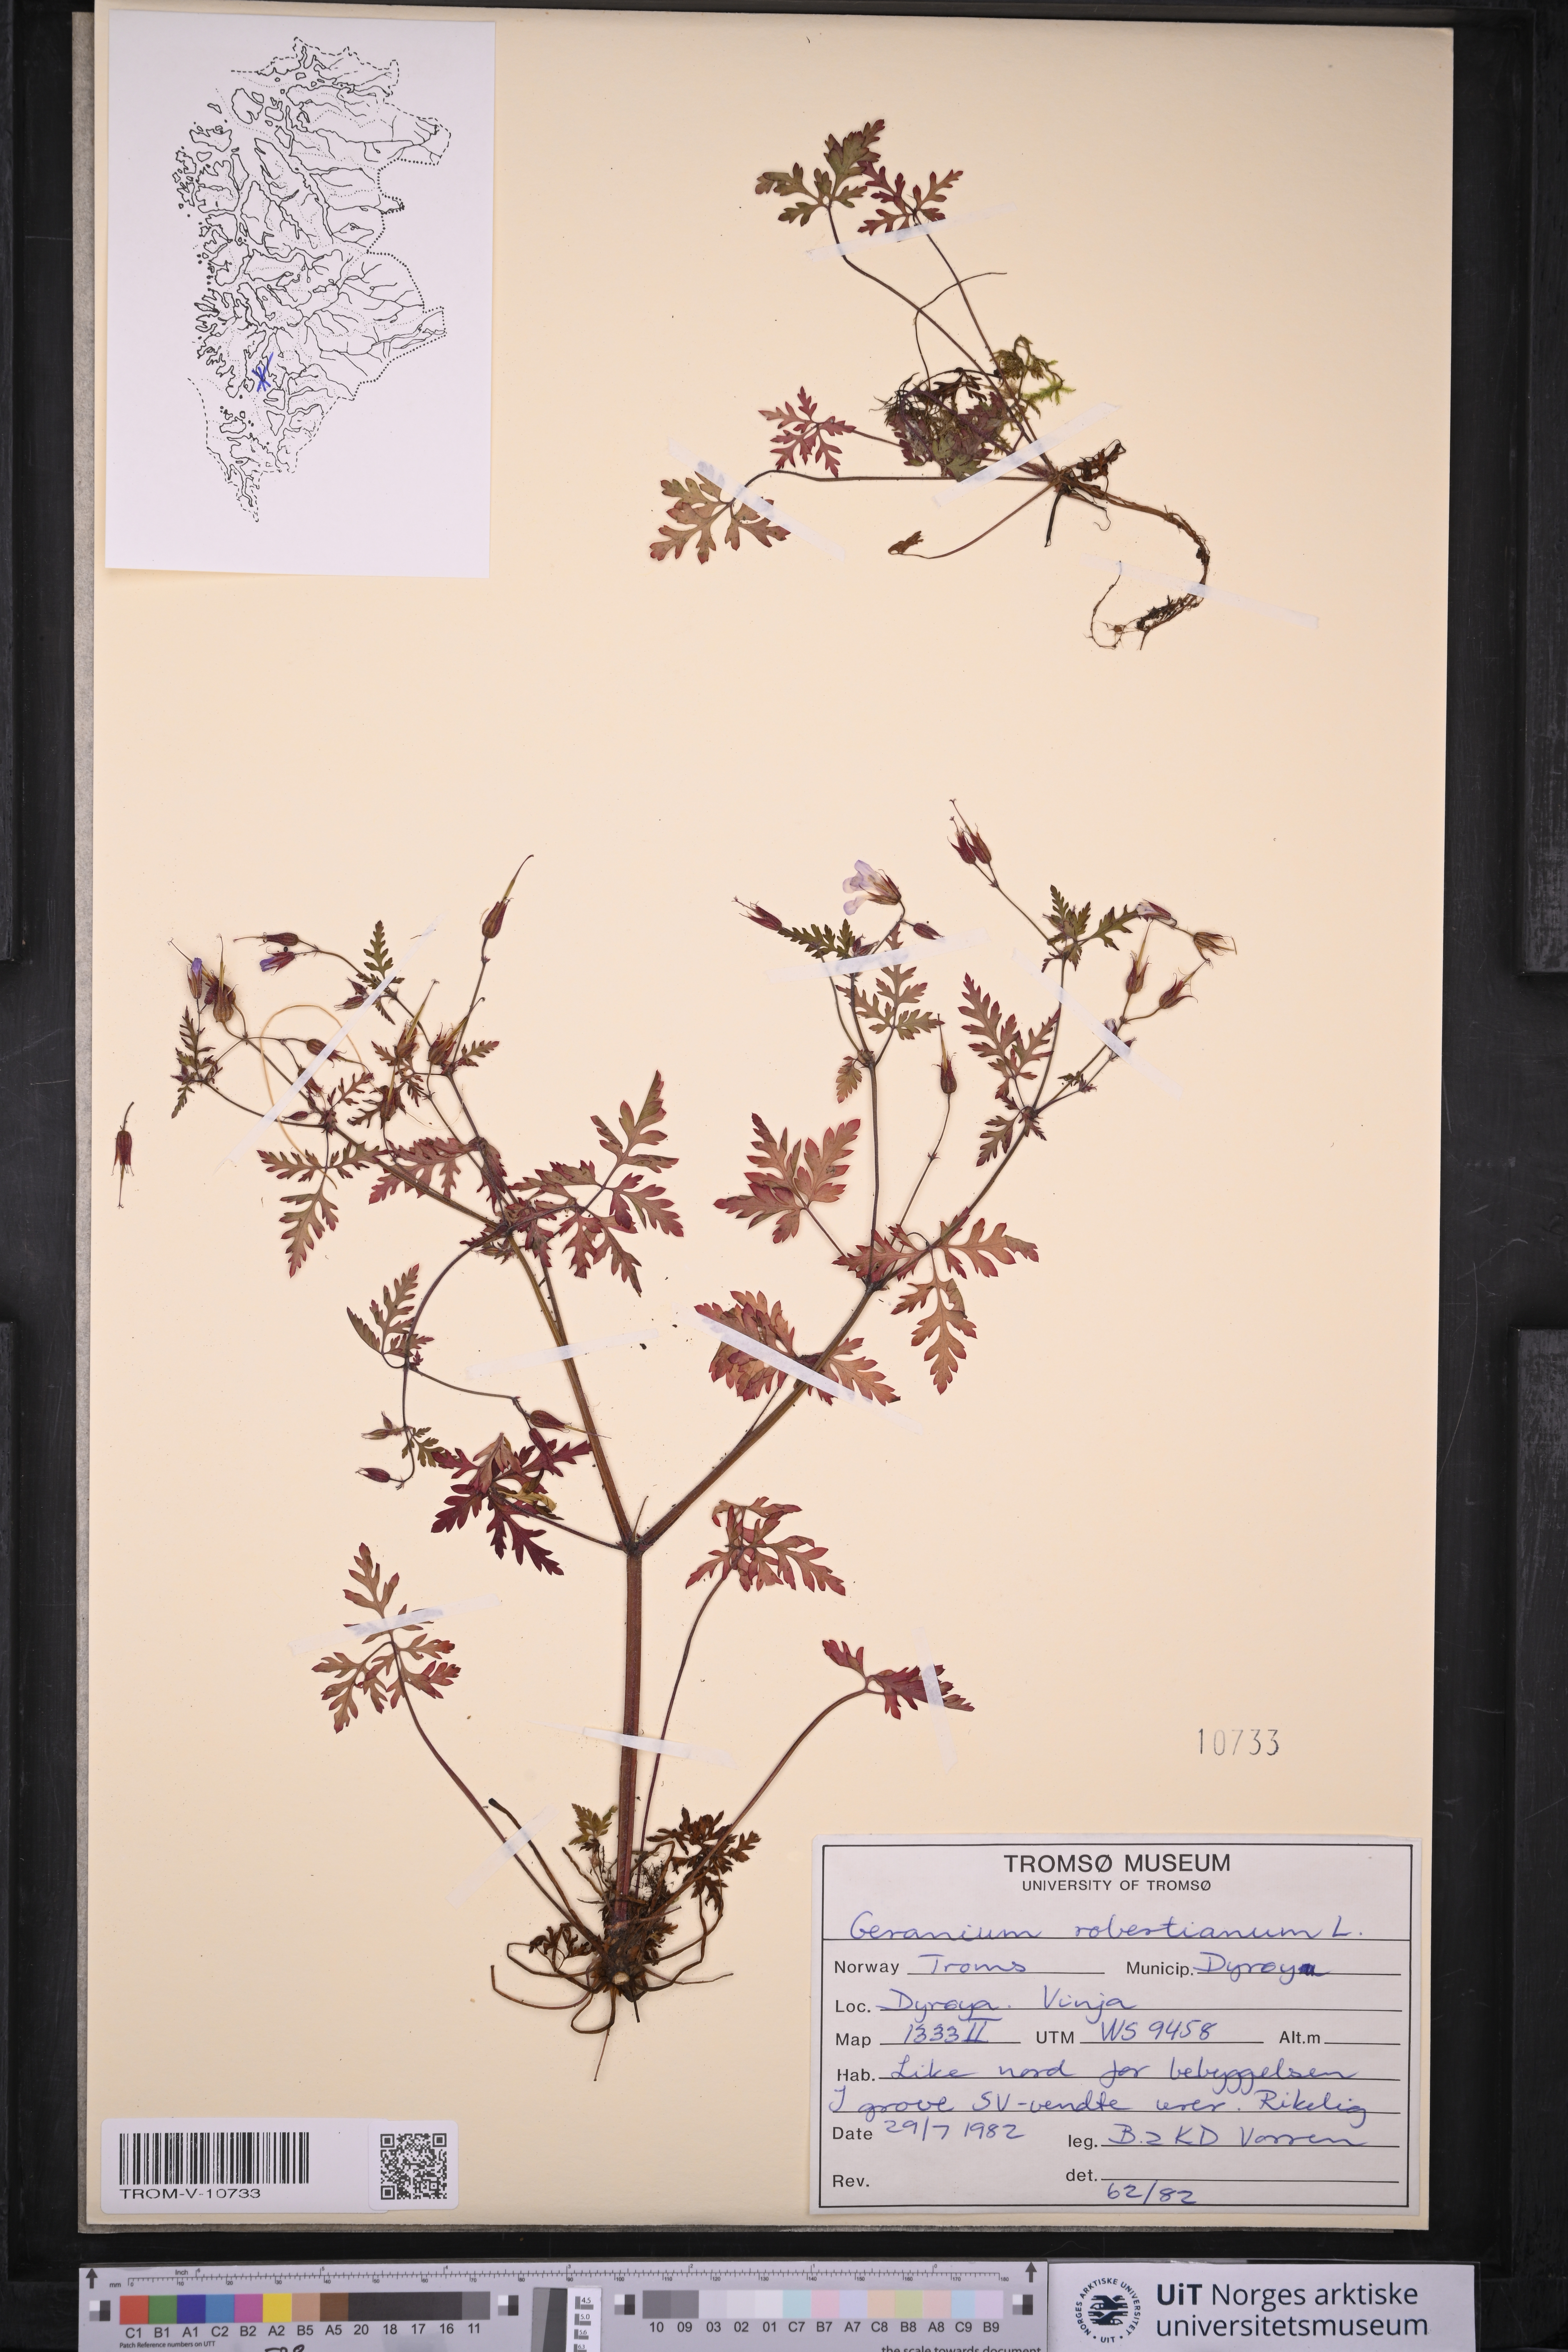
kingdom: Plantae
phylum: Tracheophyta
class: Magnoliopsida
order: Geraniales
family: Geraniaceae
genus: Geranium
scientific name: Geranium robertianum
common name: Herb-robert
